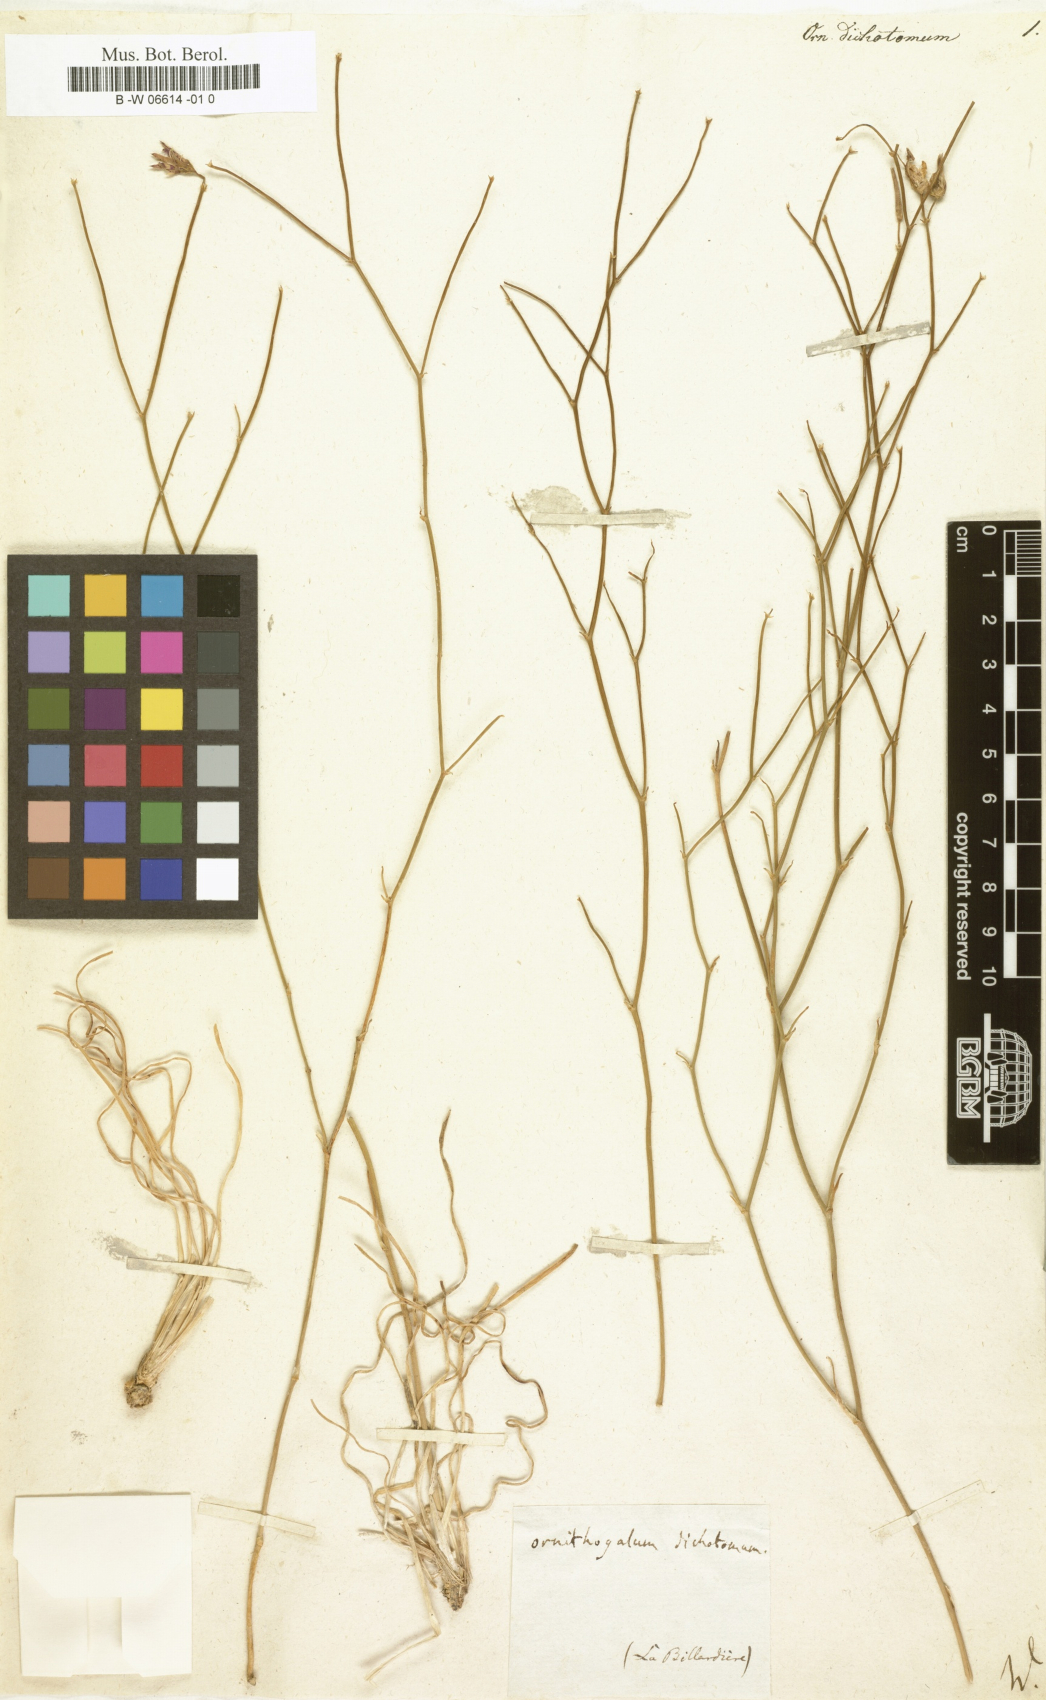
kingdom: Plantae
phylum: Tracheophyta
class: Liliopsida
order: Asparagales
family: Asparagaceae
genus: Thysanotus
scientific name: Thysanotus dichotomus
